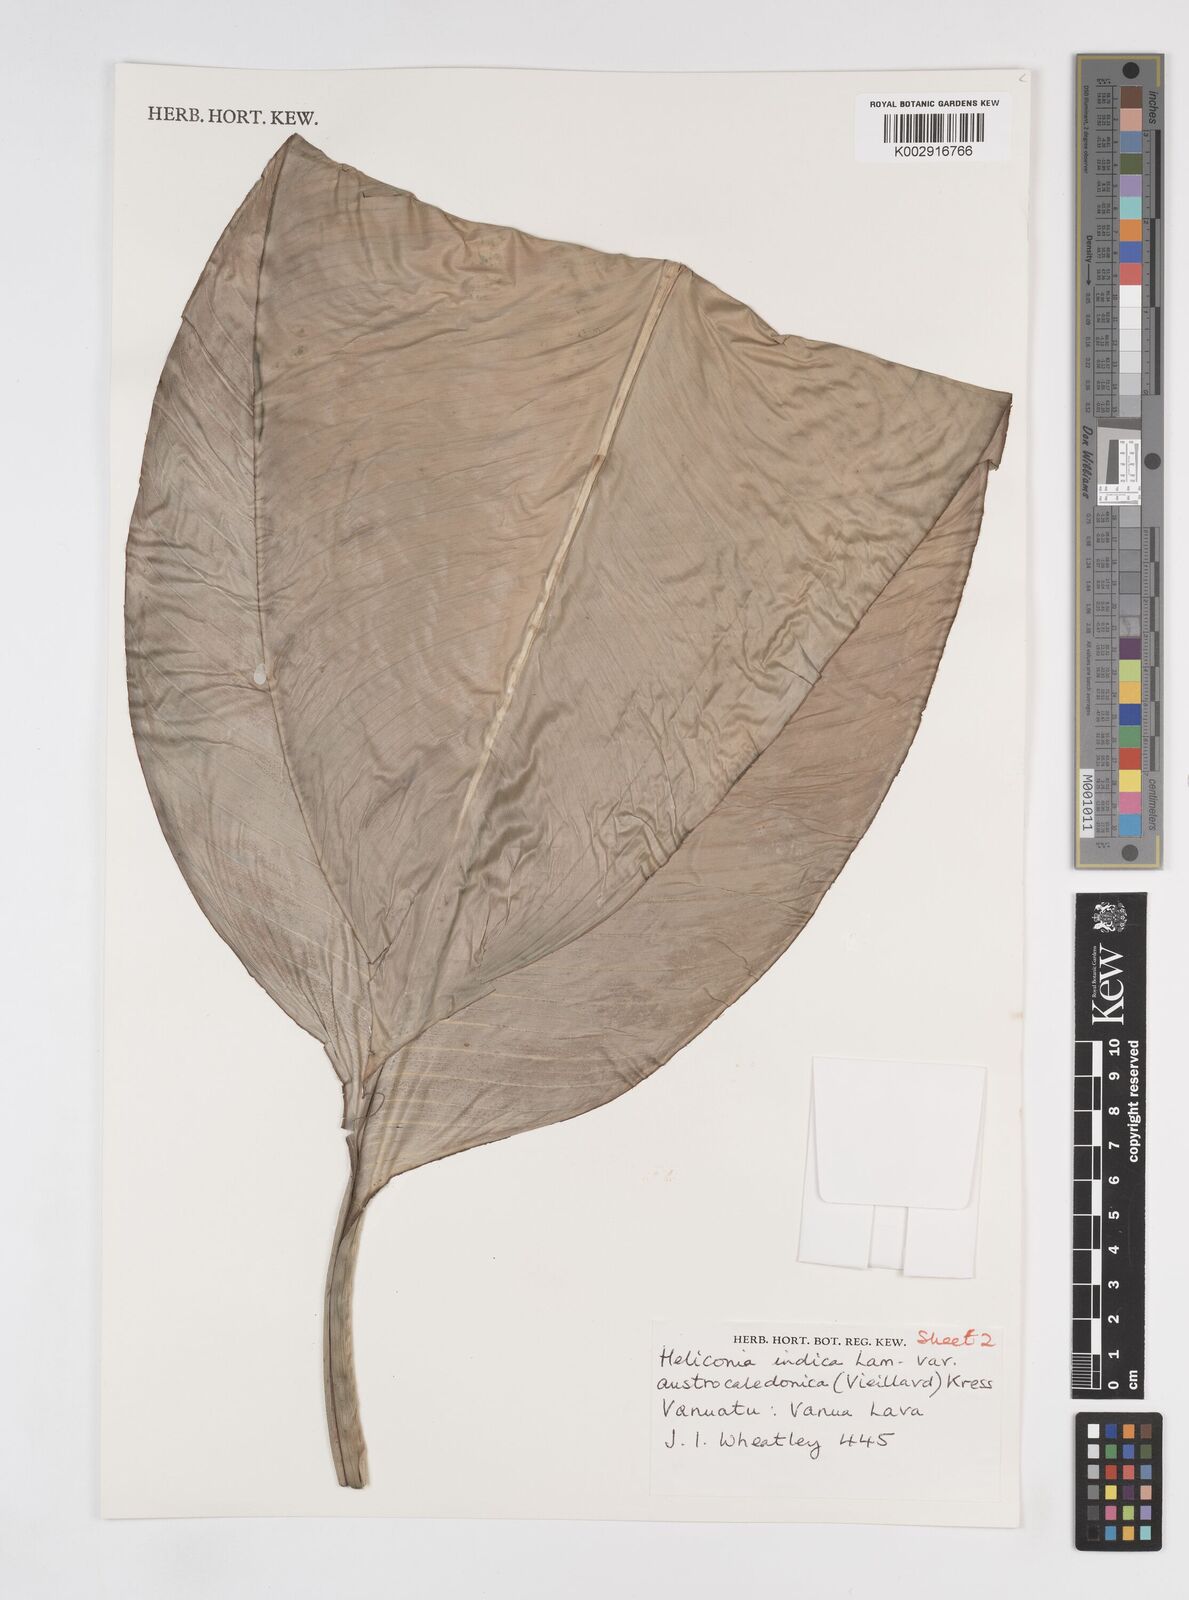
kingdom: Plantae
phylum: Tracheophyta
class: Liliopsida
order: Zingiberales
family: Heliconiaceae
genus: Heliconia
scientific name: Heliconia indica
